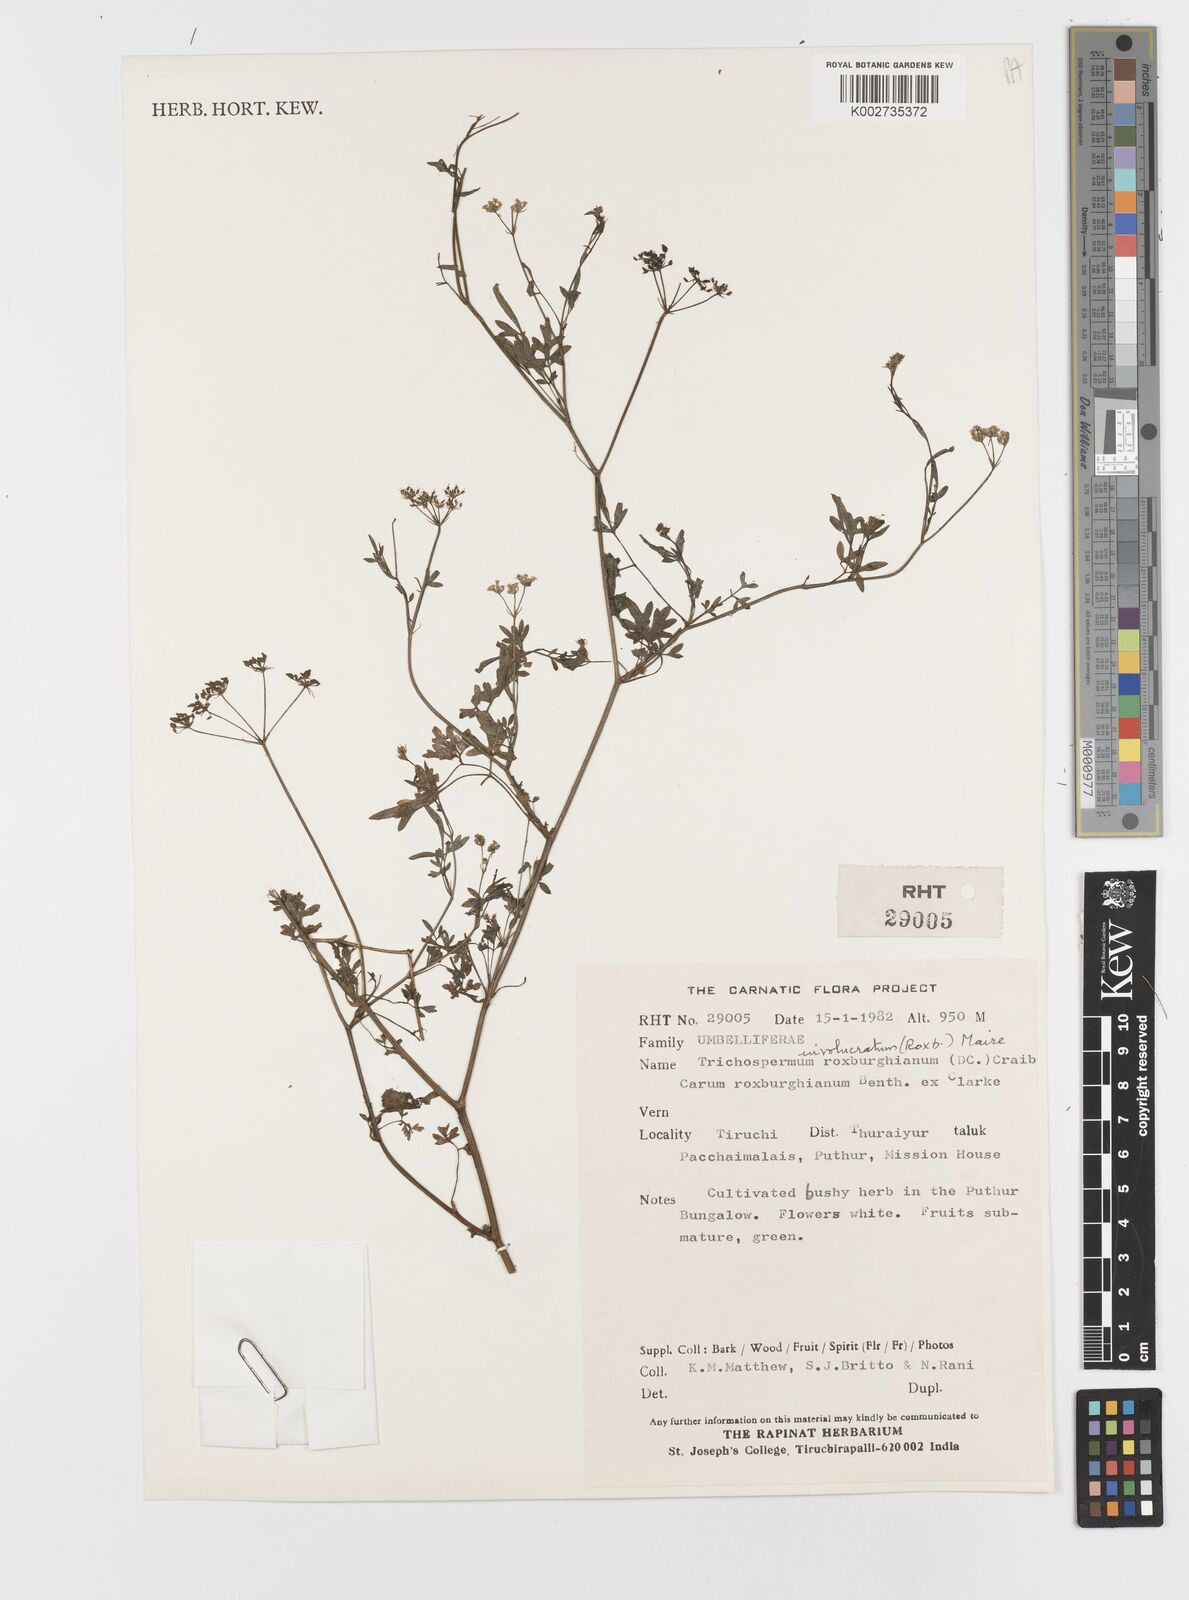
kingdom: Plantae
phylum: Tracheophyta
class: Magnoliopsida
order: Apiales
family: Apiaceae
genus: Psammogeton
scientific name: Psammogeton involucratum
